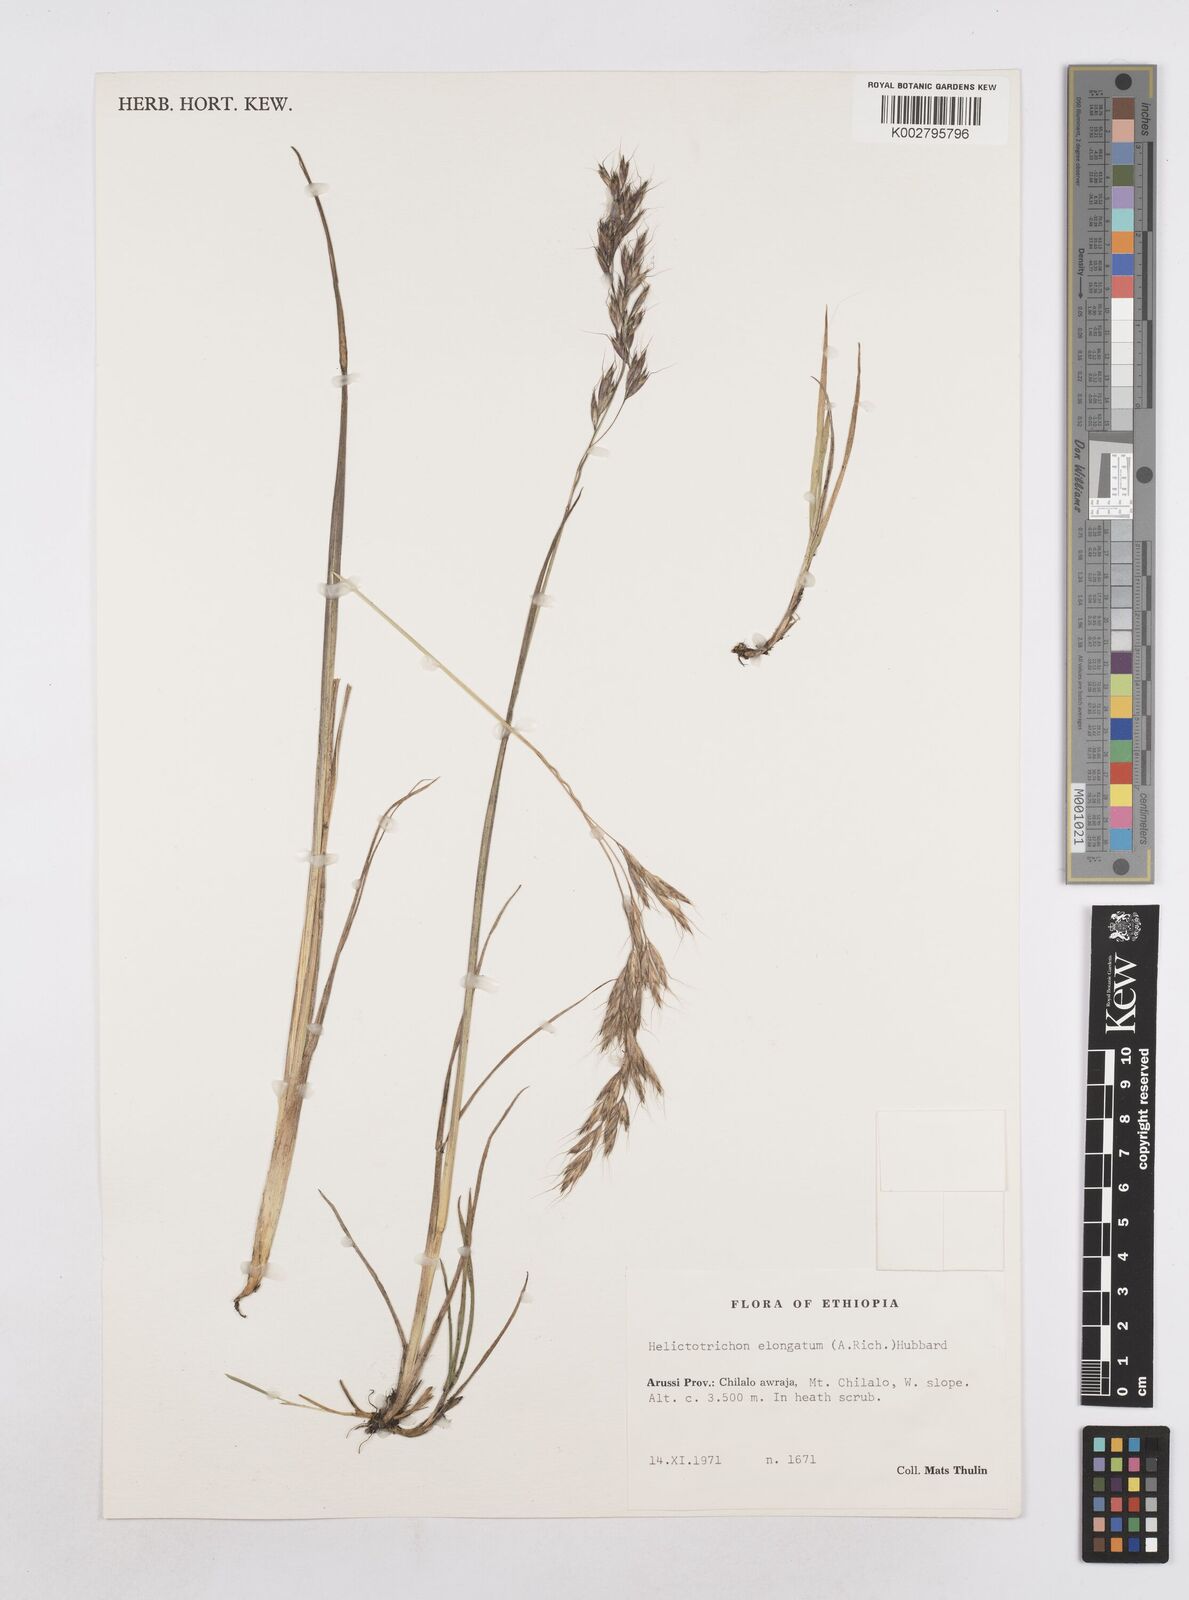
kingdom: Plantae
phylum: Tracheophyta
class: Liliopsida
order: Poales
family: Poaceae
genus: Trisetopsis
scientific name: Trisetopsis elongata
